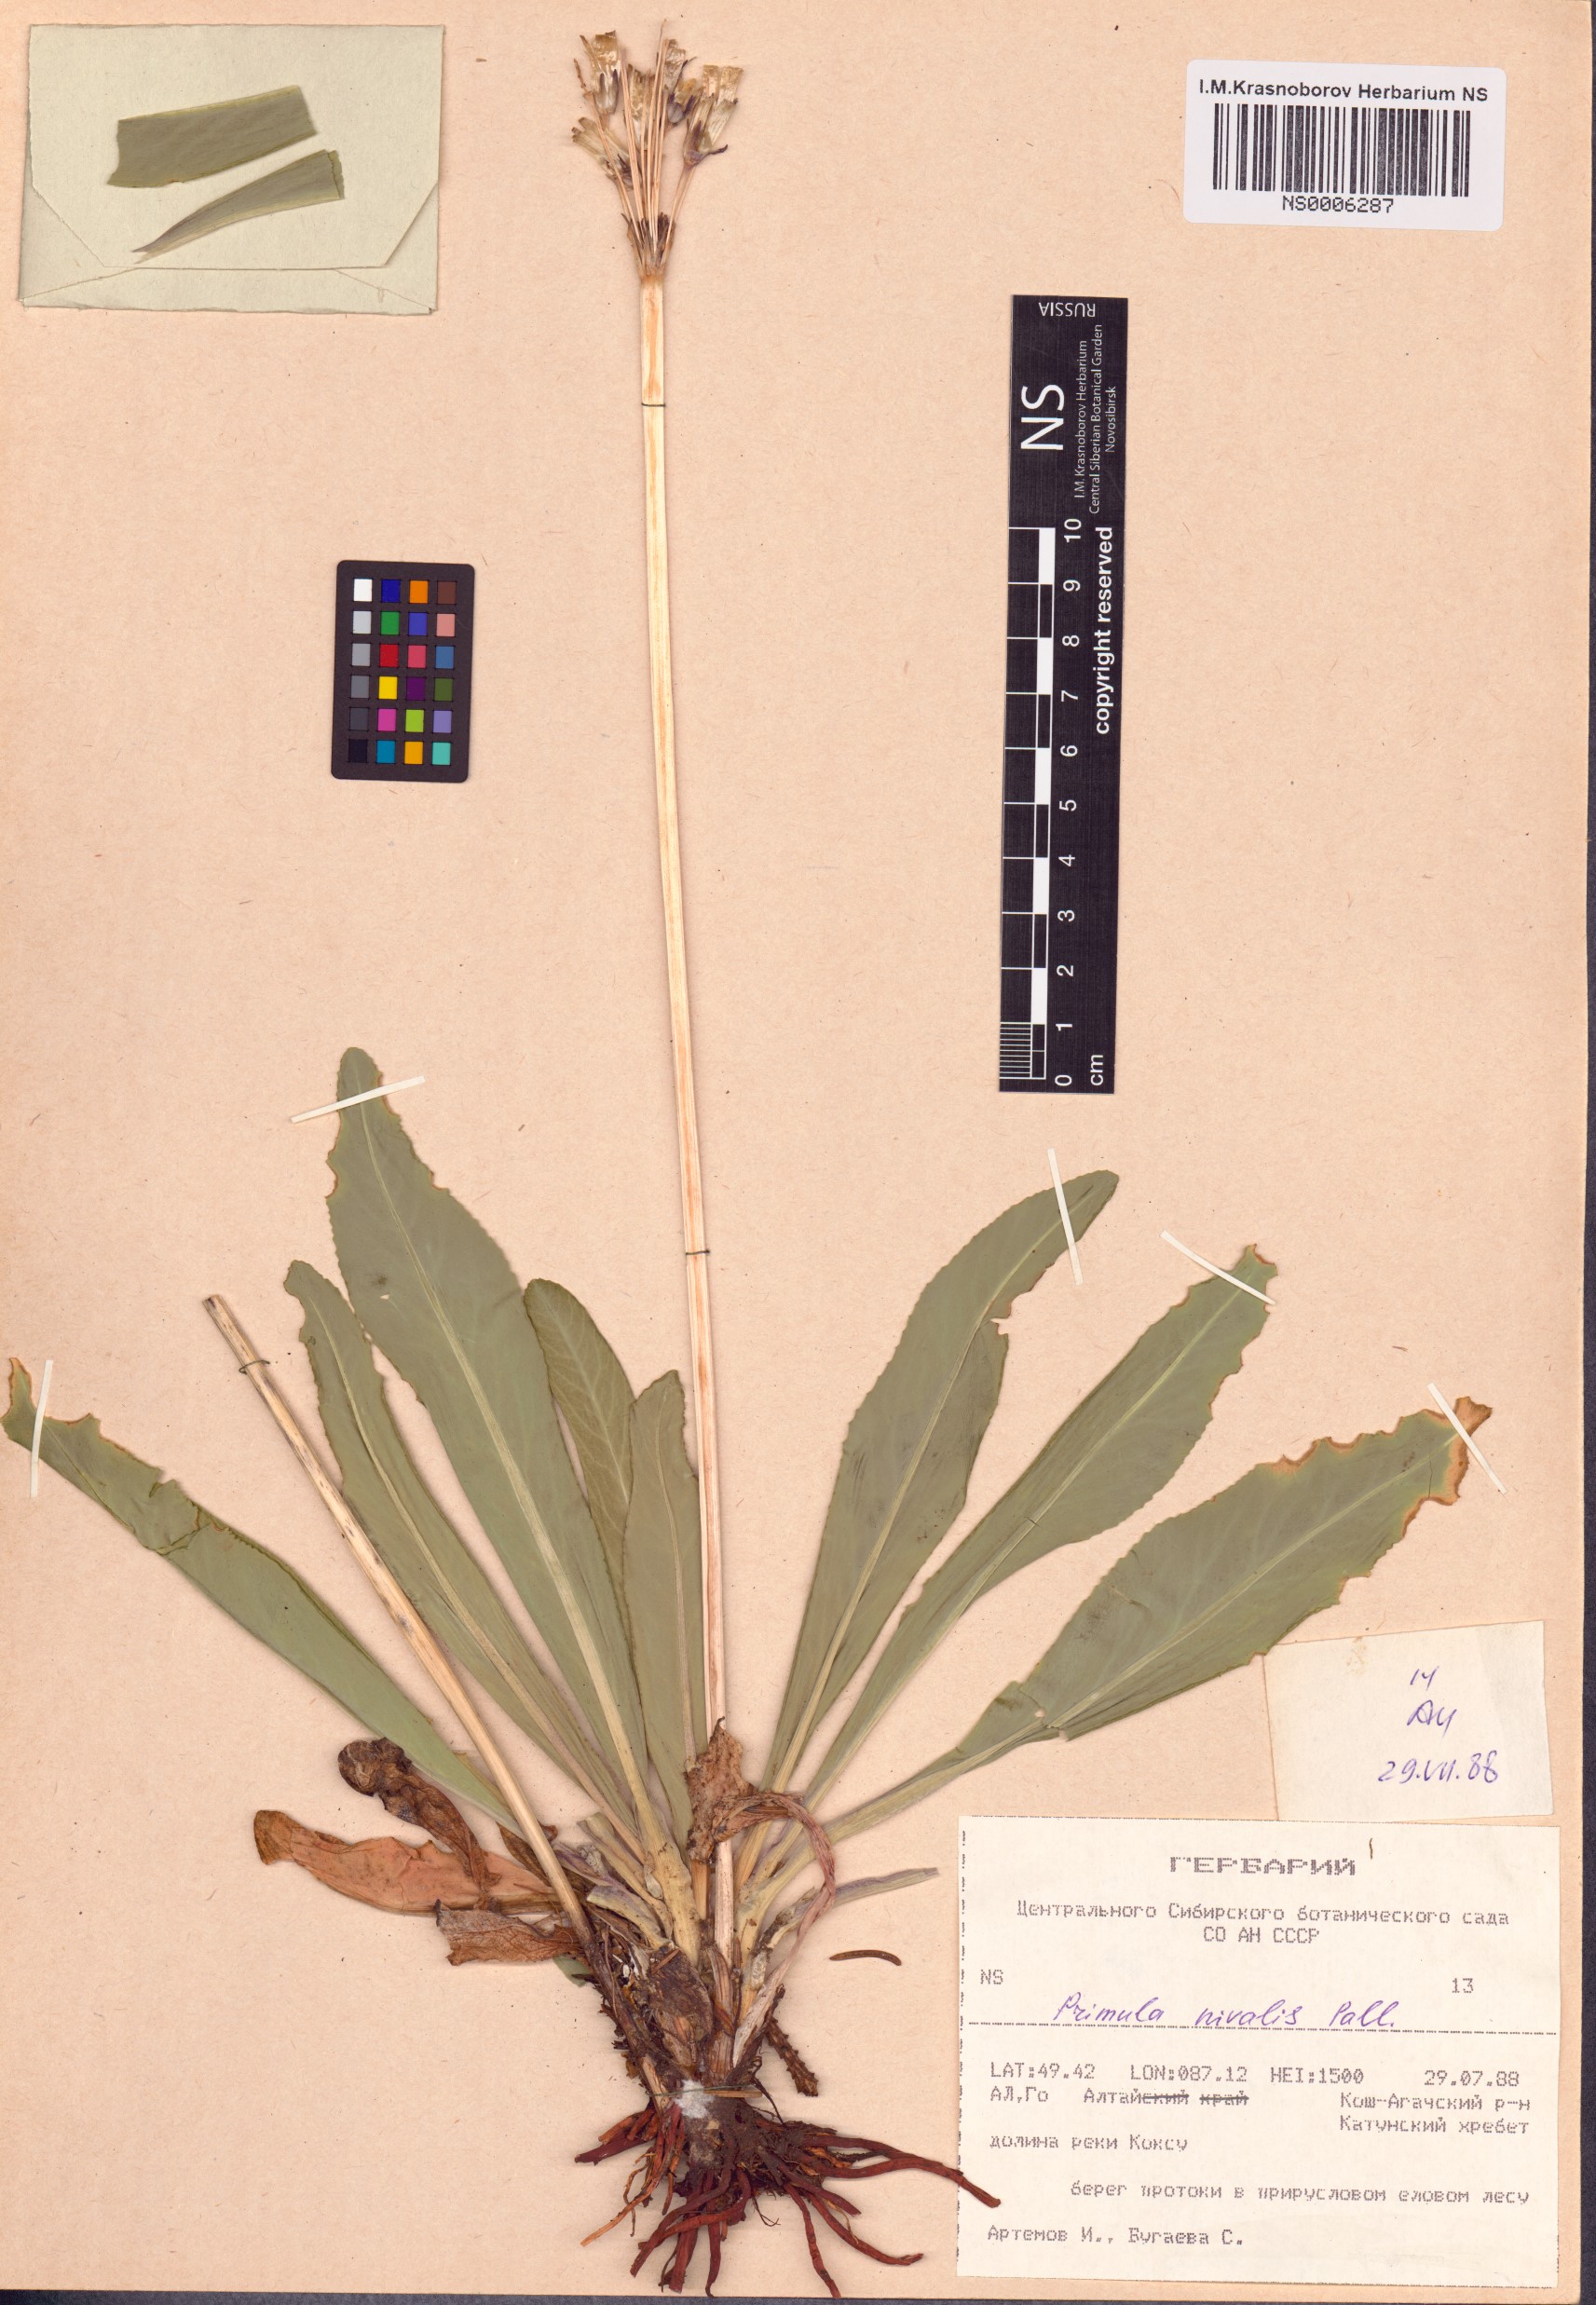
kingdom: Plantae
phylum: Tracheophyta
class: Magnoliopsida
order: Ericales
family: Primulaceae
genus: Primula
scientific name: Primula nivalis
